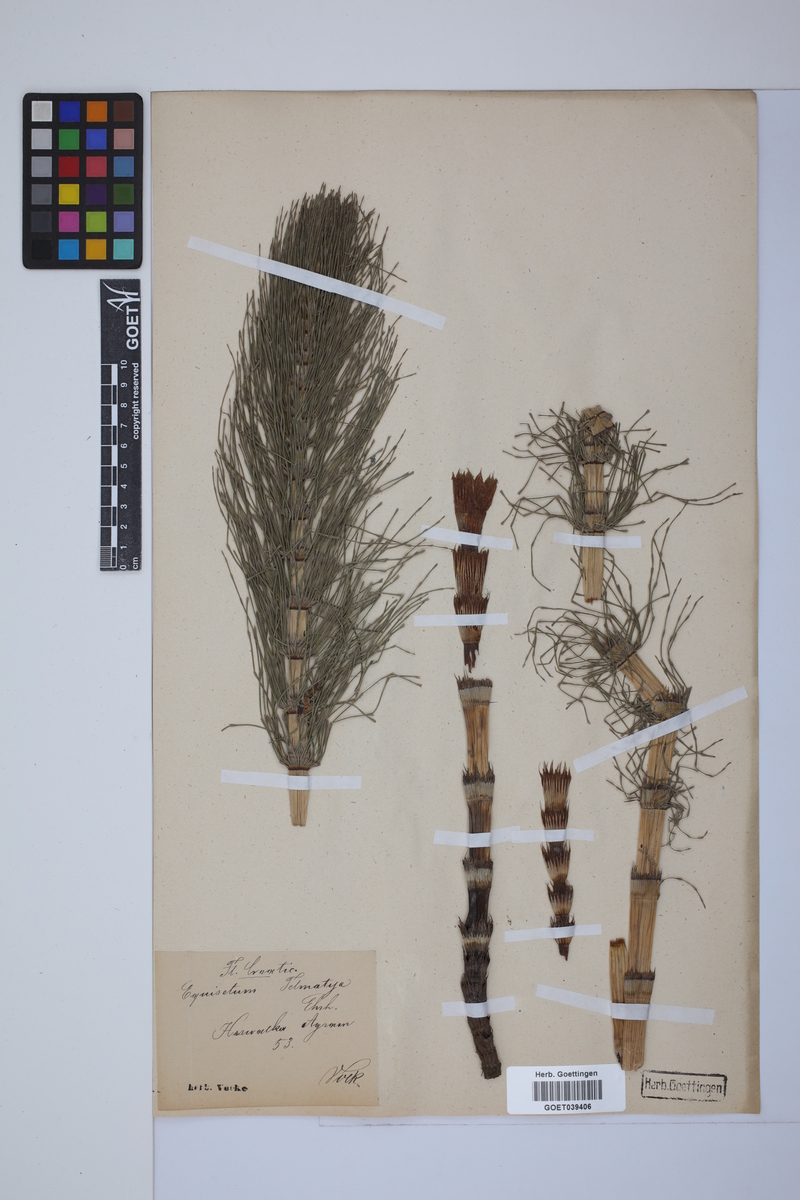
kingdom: Plantae
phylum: Tracheophyta
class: Polypodiopsida
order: Equisetales
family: Equisetaceae
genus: Equisetum
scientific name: Equisetum telmateia
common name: Great horsetail
